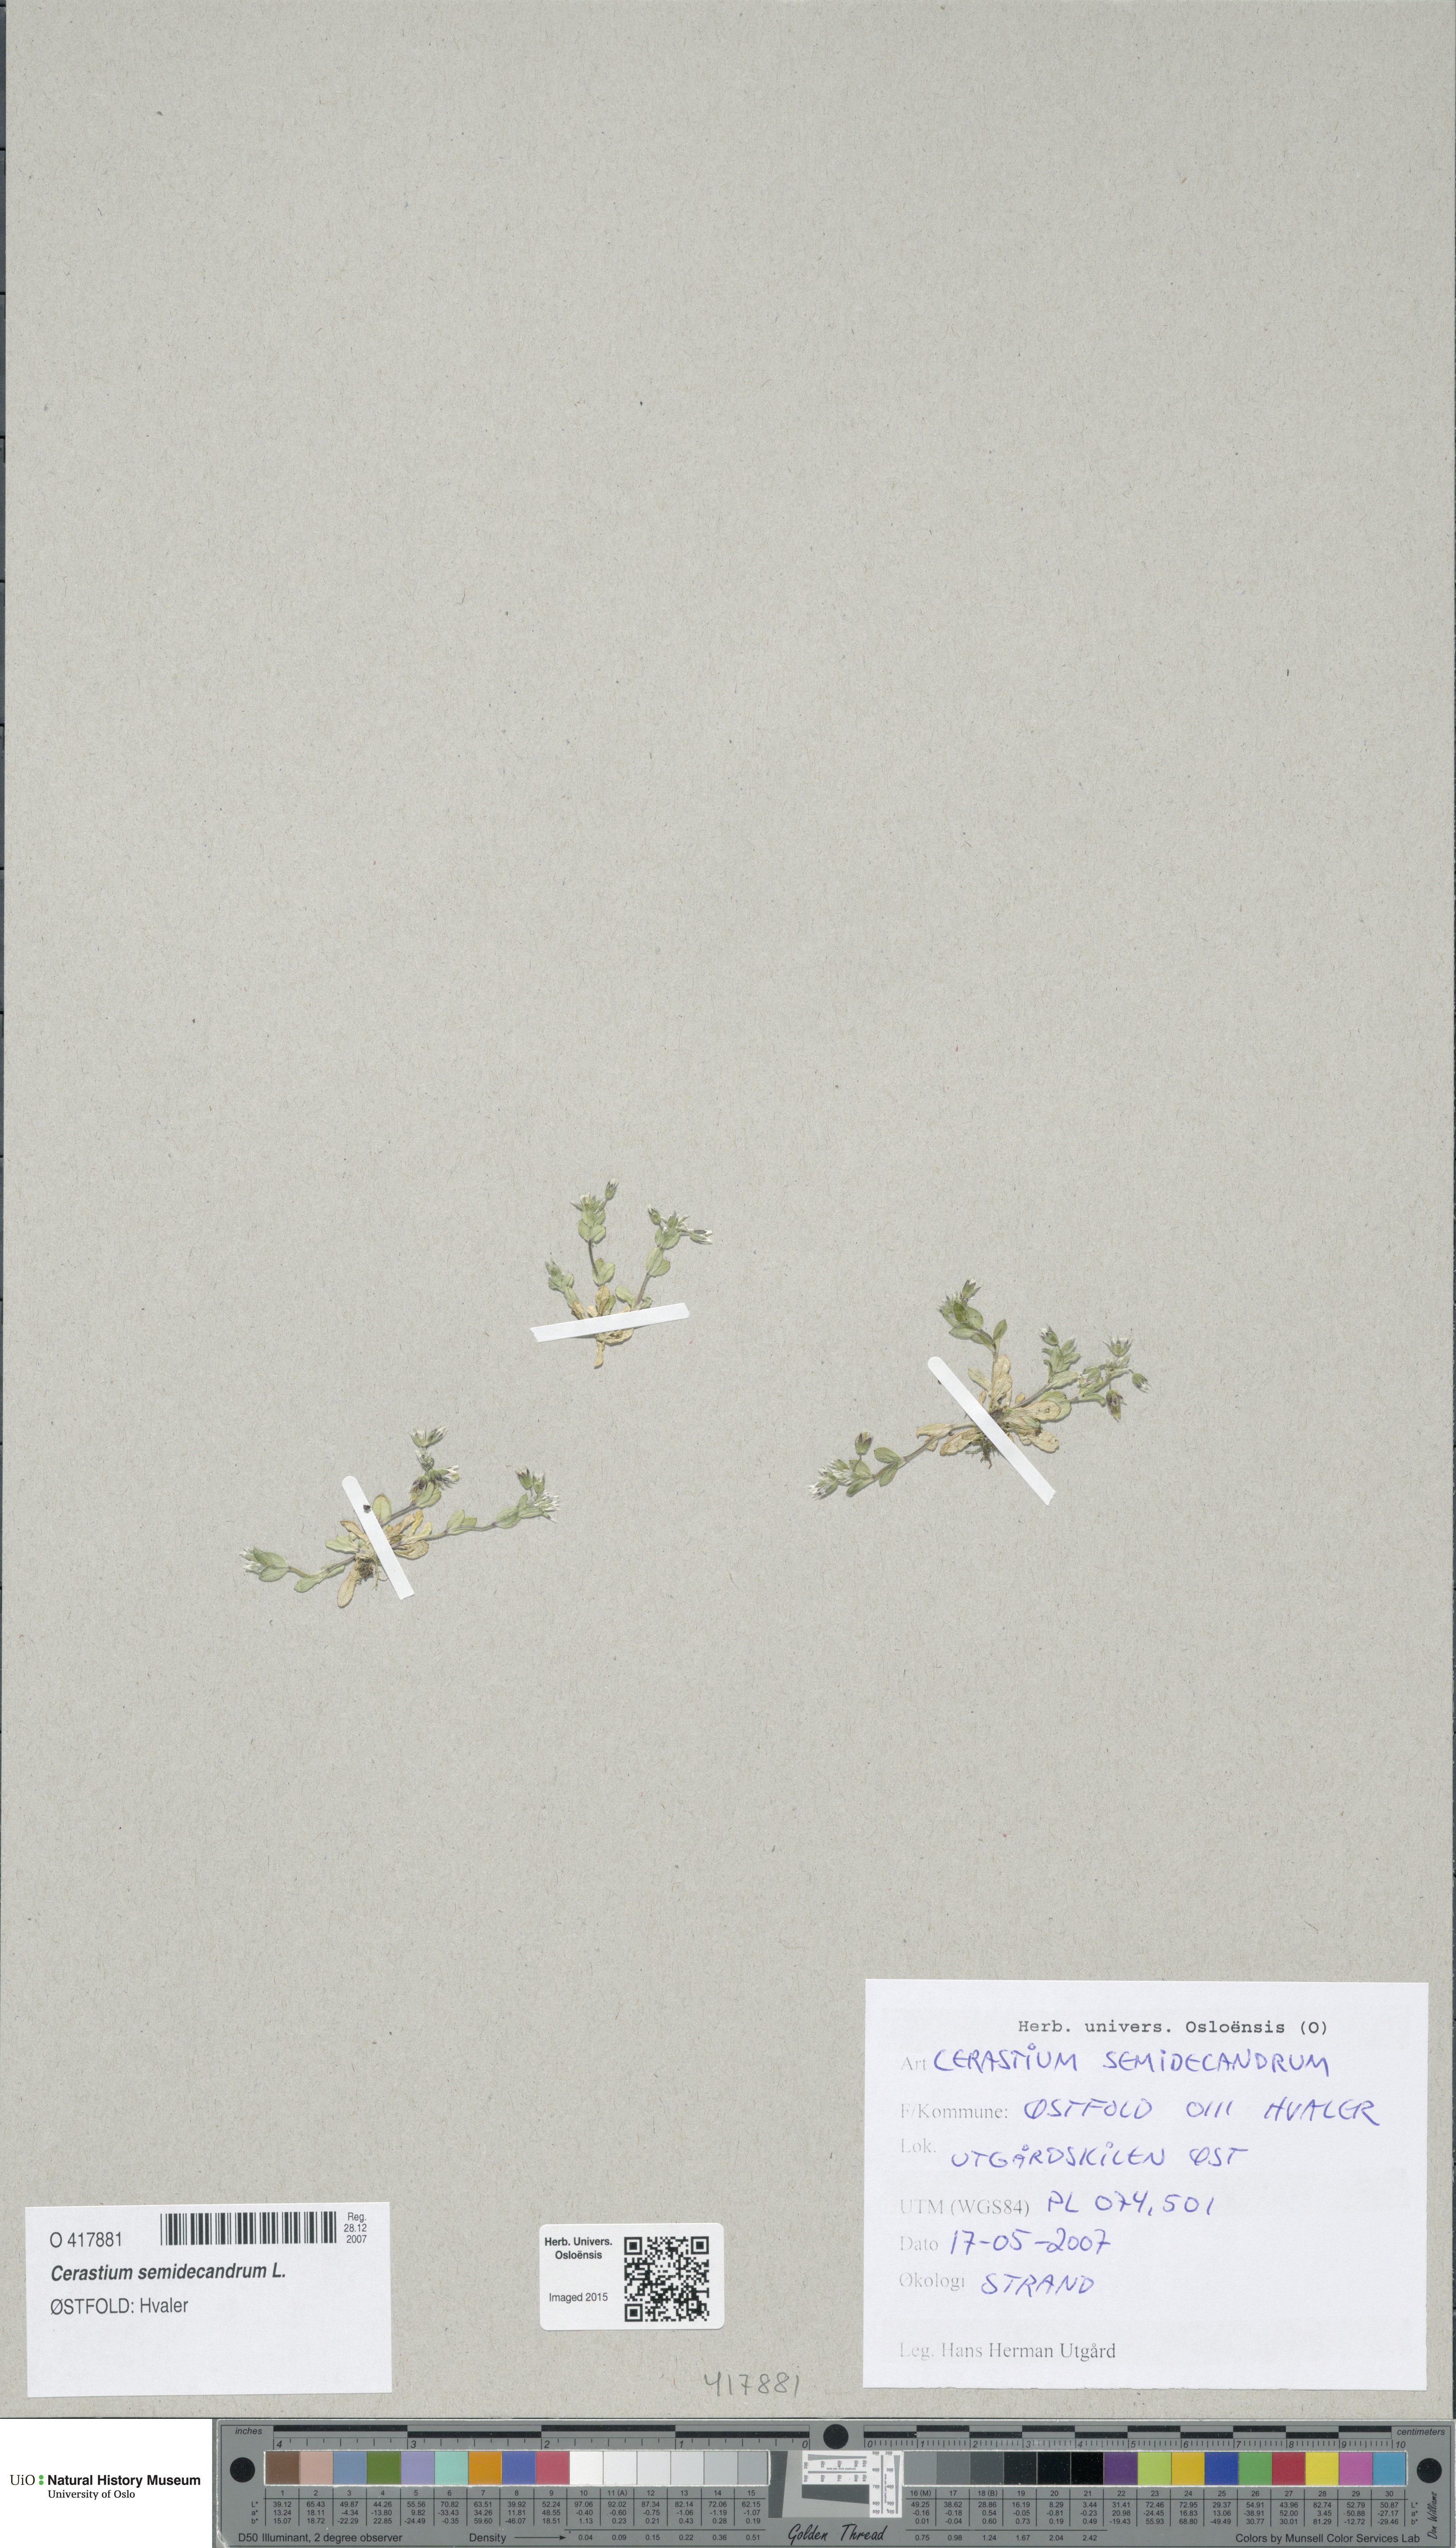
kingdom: Plantae
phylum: Tracheophyta
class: Magnoliopsida
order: Caryophyllales
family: Caryophyllaceae
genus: Cerastium
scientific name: Cerastium semidecandrum
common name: Little mouse-ear
